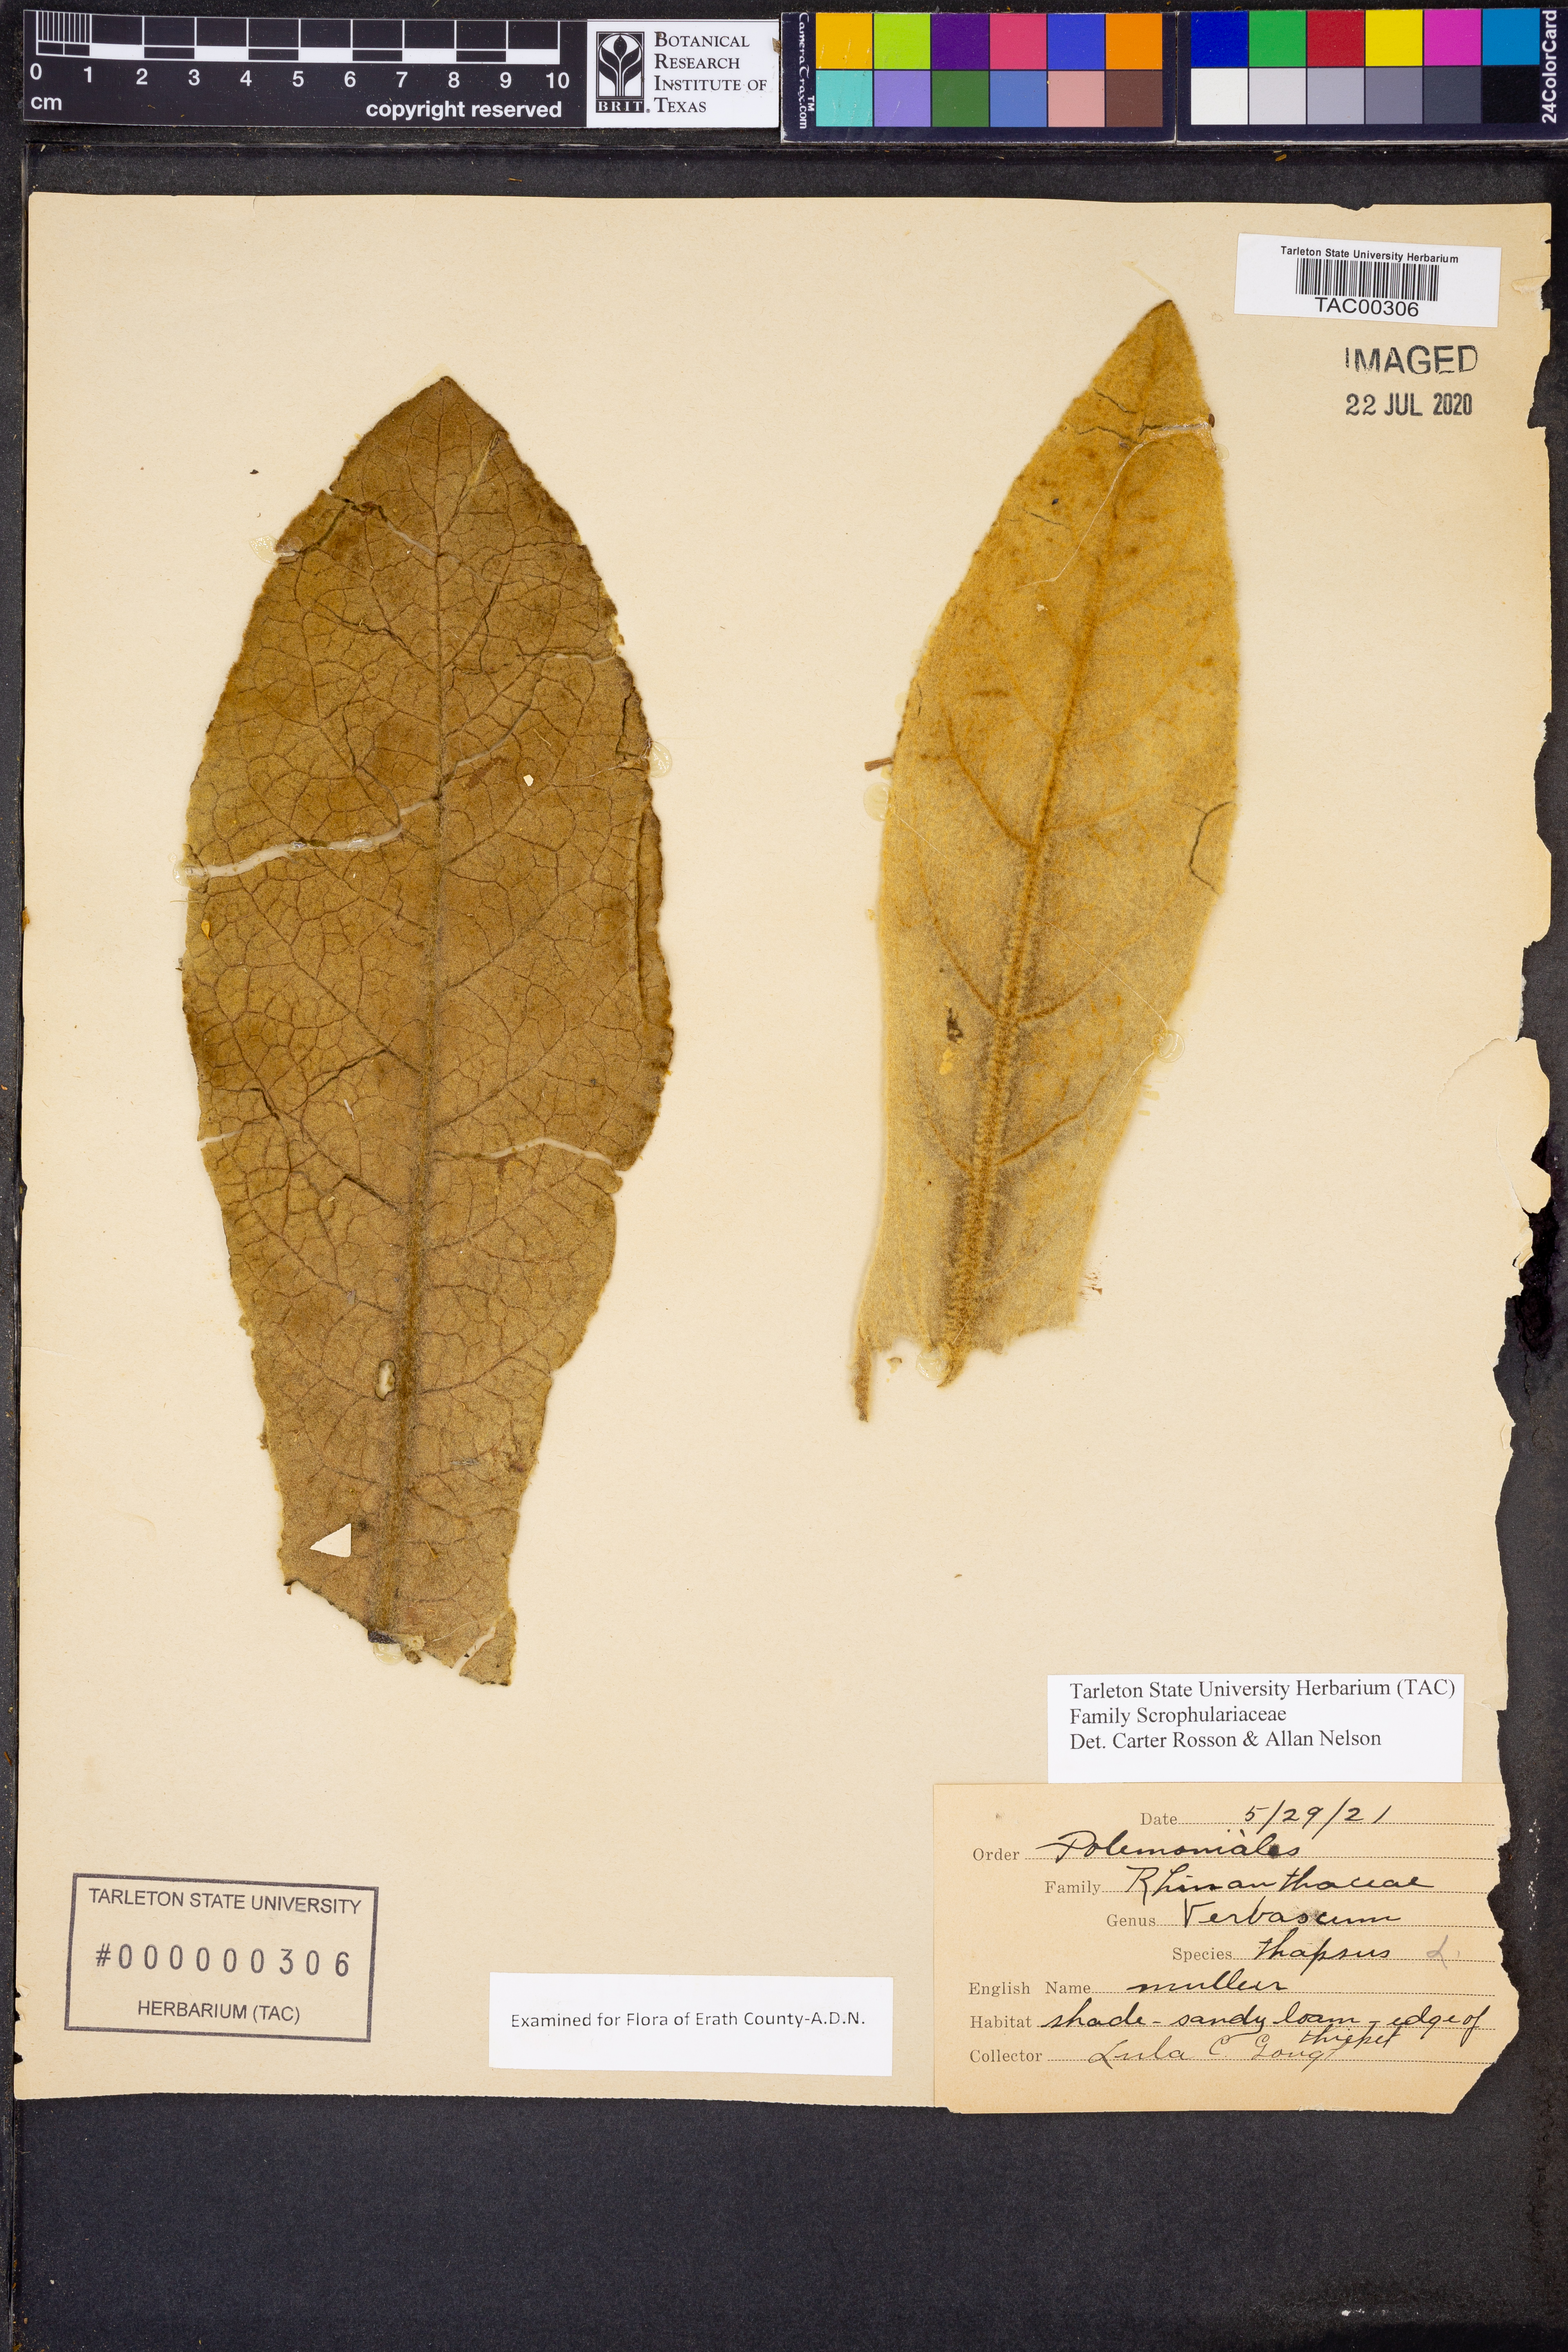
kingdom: Plantae
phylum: Tracheophyta
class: Magnoliopsida
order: Lamiales
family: Scrophulariaceae
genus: Verbascum
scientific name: Verbascum thapsus
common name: Common mullein
